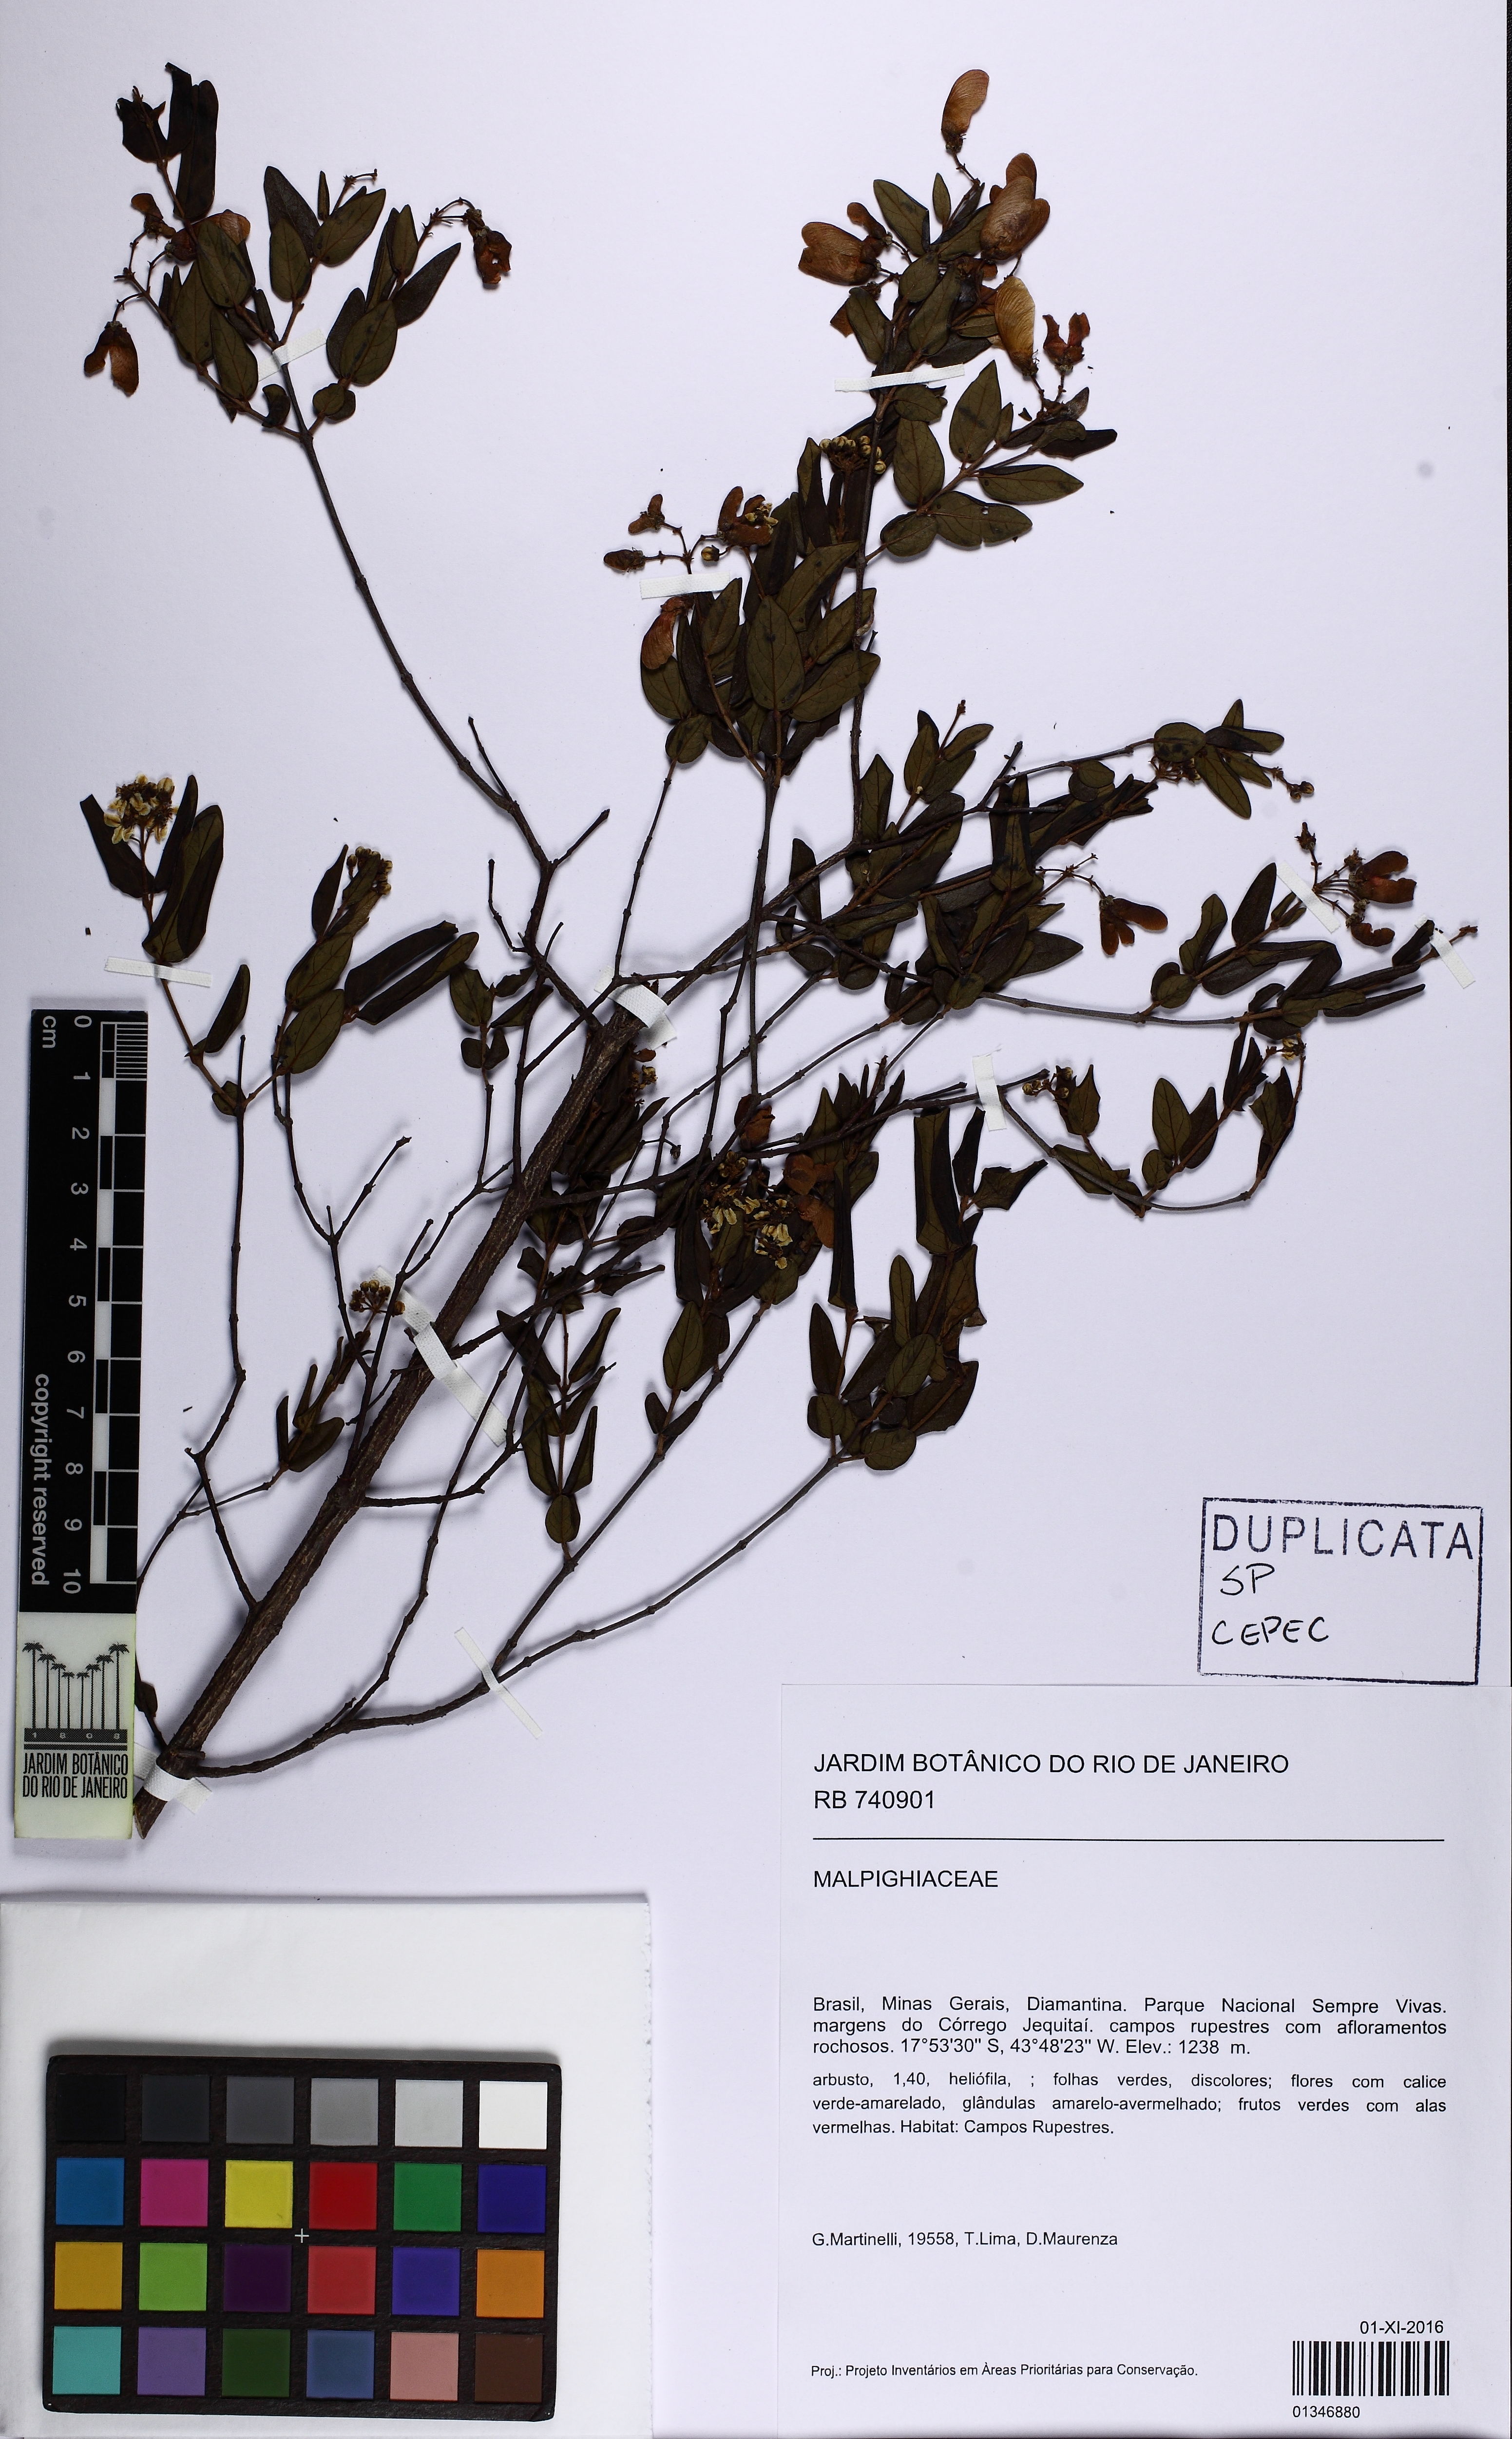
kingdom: Plantae
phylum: Tracheophyta
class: Magnoliopsida
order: Malpighiales
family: Malpighiaceae
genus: Heteropterys
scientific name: Heteropterys
